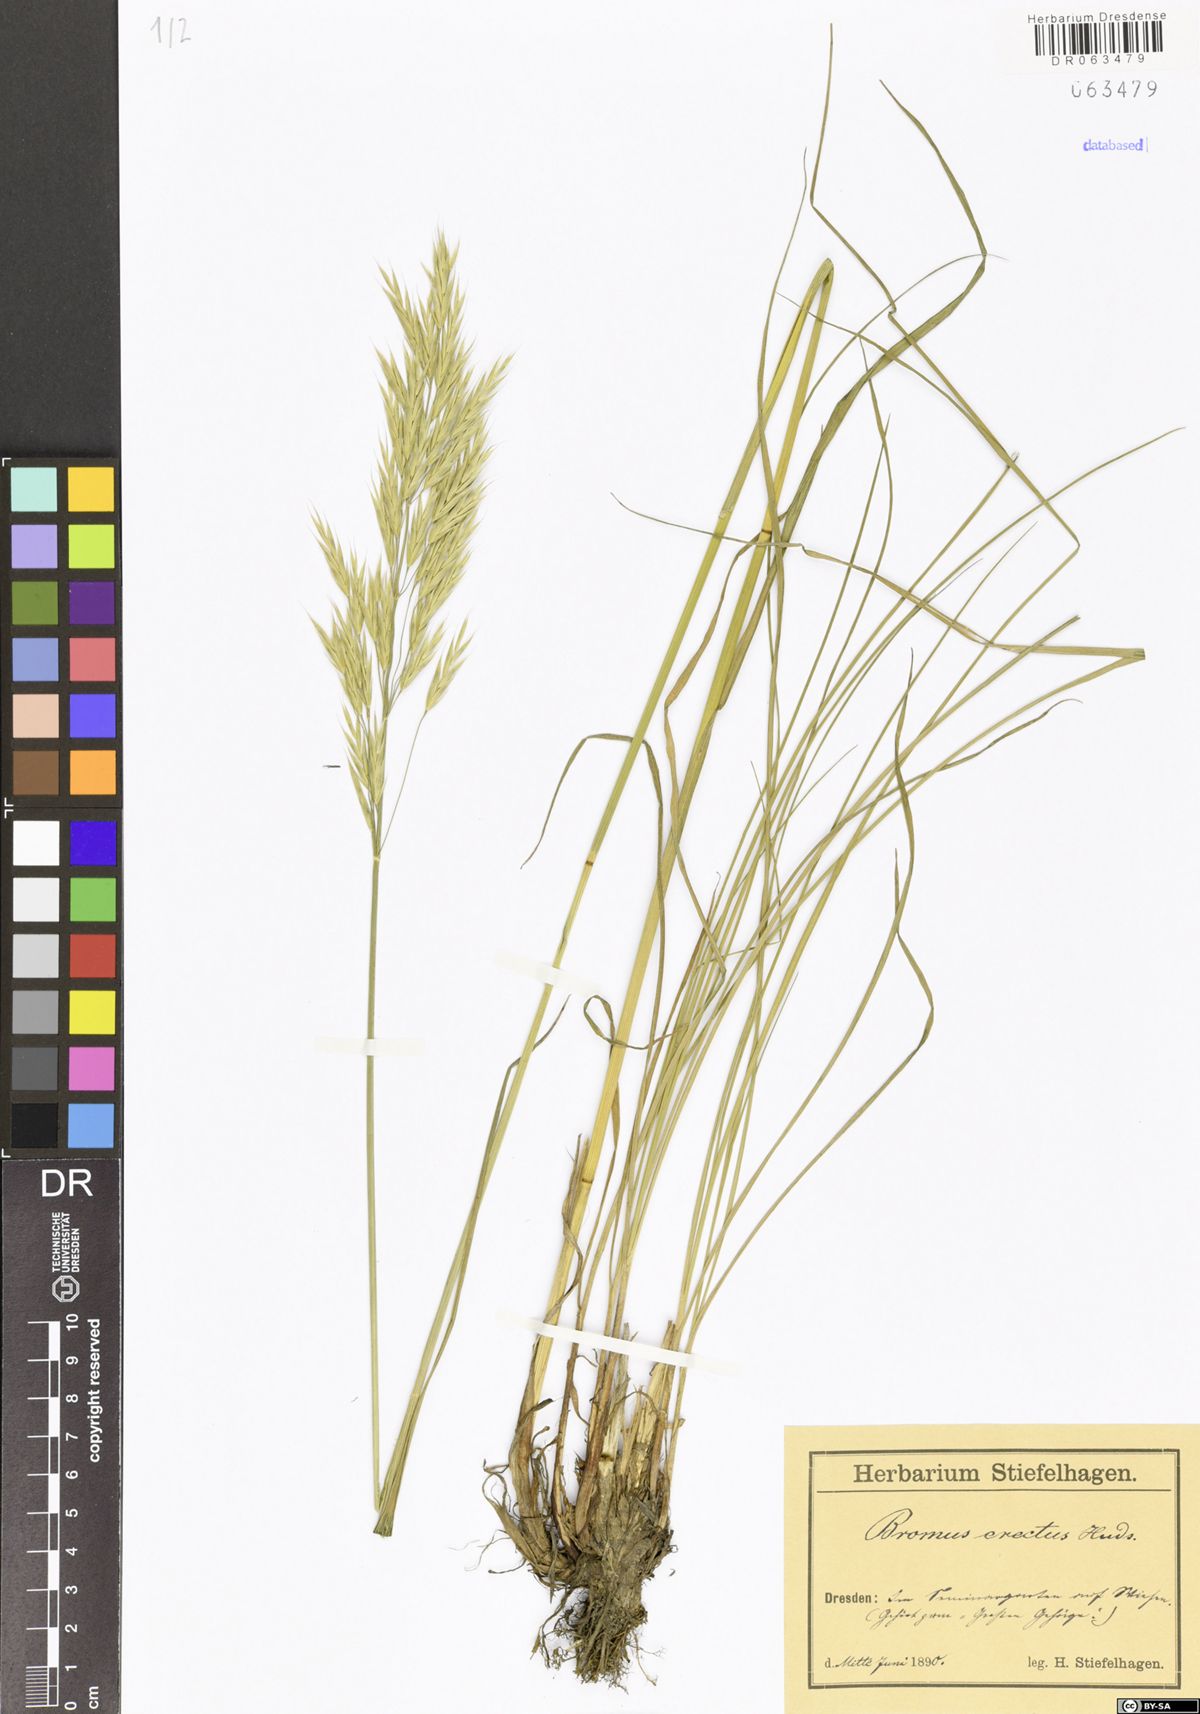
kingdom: Plantae
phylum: Tracheophyta
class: Liliopsida
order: Poales
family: Poaceae
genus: Bromus
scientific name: Bromus erectus
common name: Erect brome
